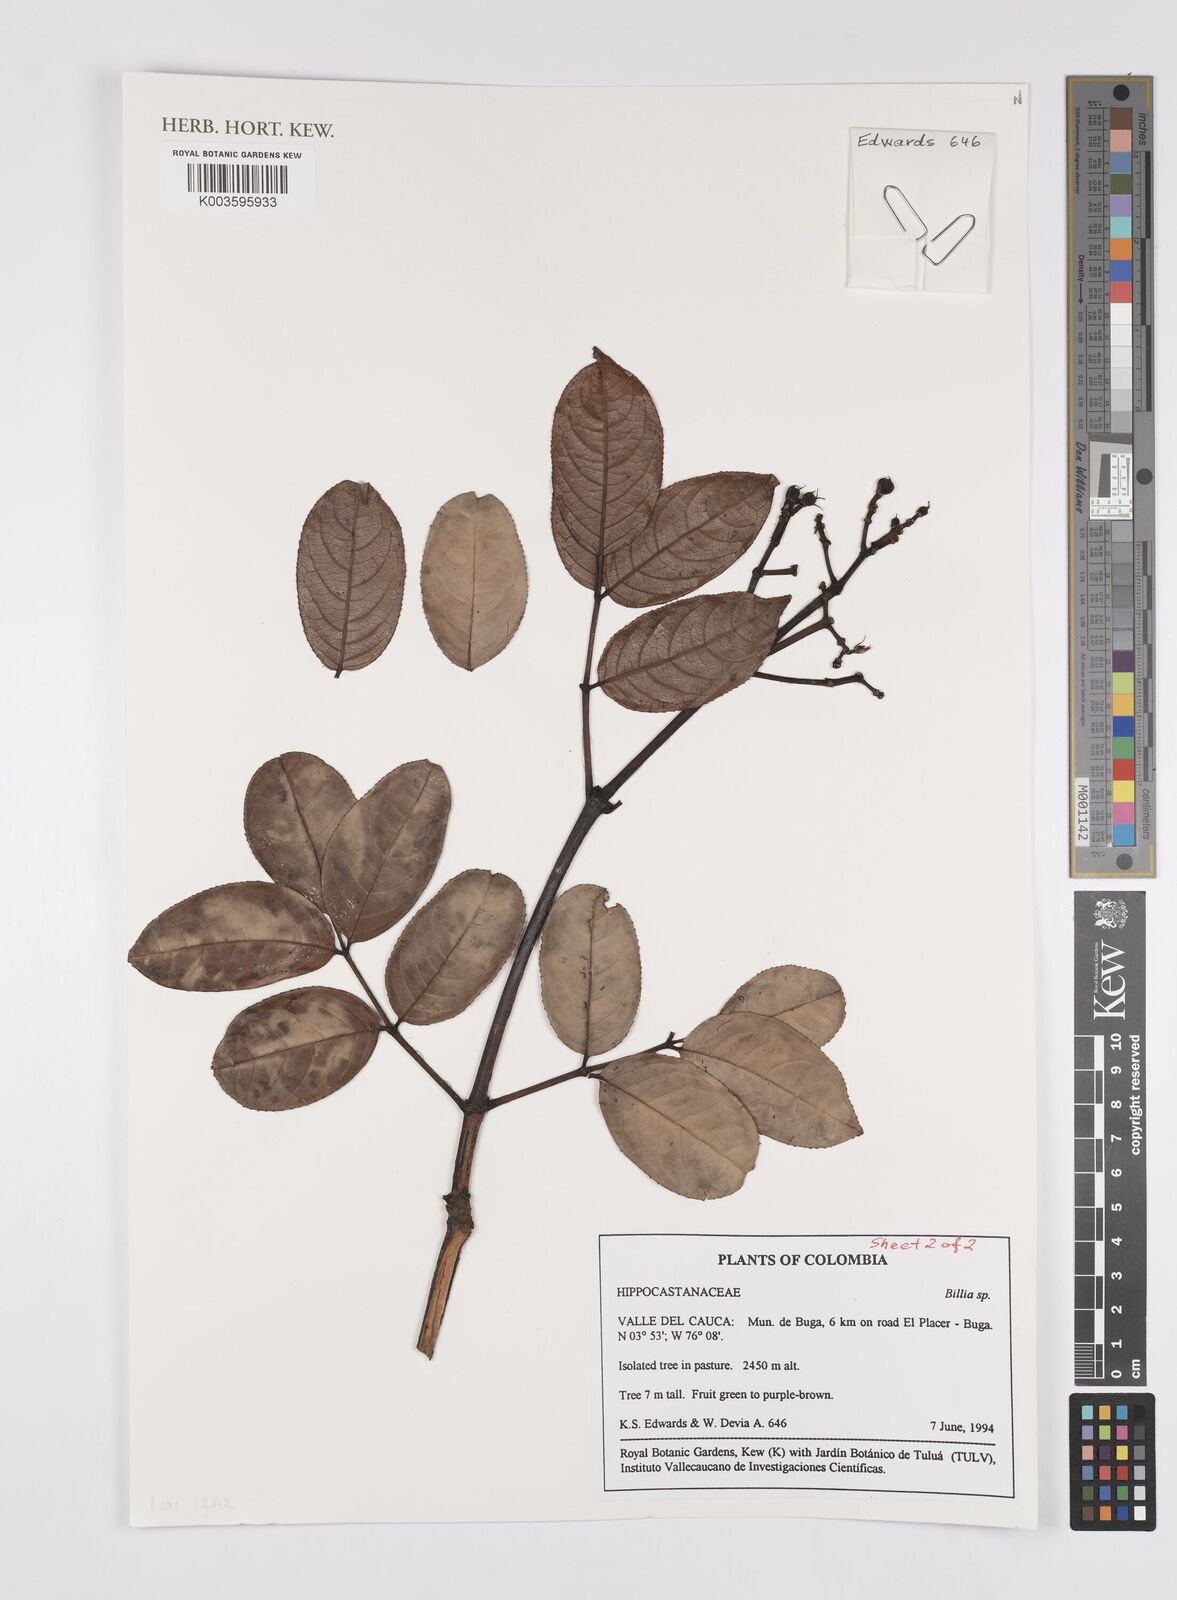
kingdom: Plantae
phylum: Tracheophyta
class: Magnoliopsida
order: Sapindales
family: Sapindaceae
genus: Billia
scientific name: Billia
